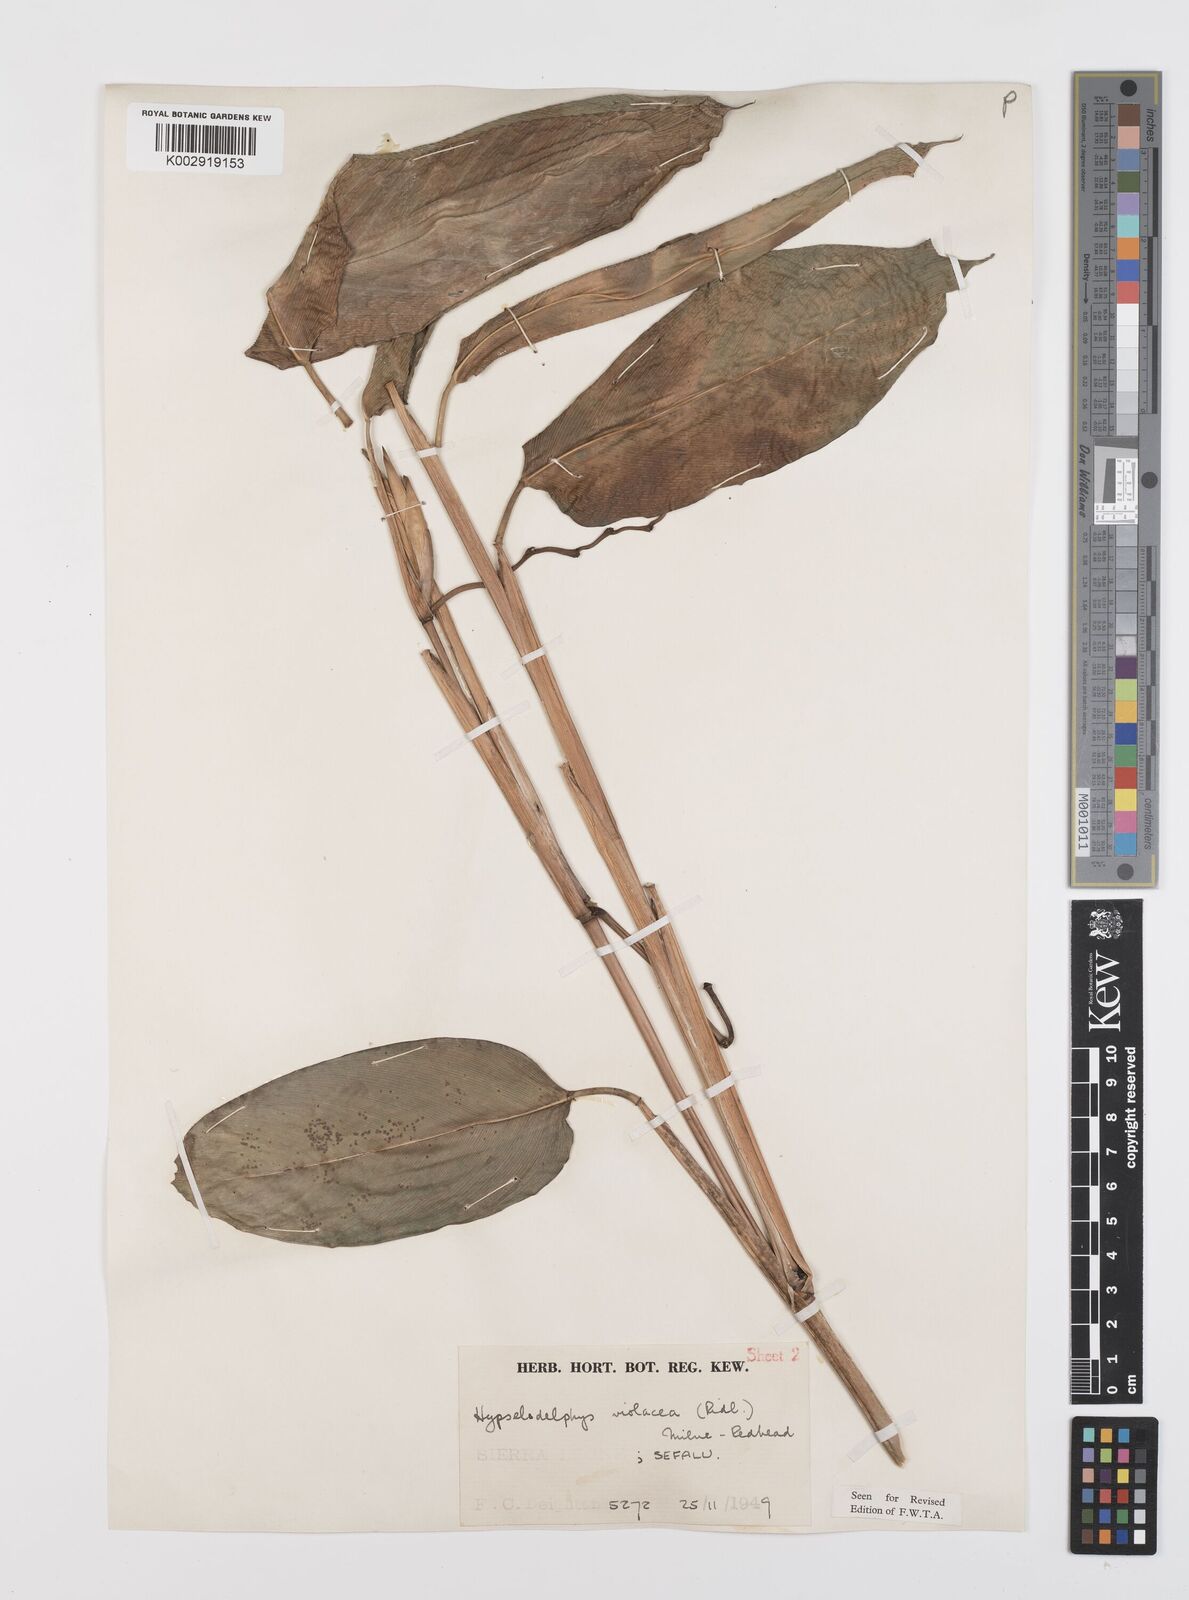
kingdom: Plantae
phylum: Tracheophyta
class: Liliopsida
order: Zingiberales
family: Marantaceae
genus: Hypselodelphys
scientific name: Hypselodelphys violacea
